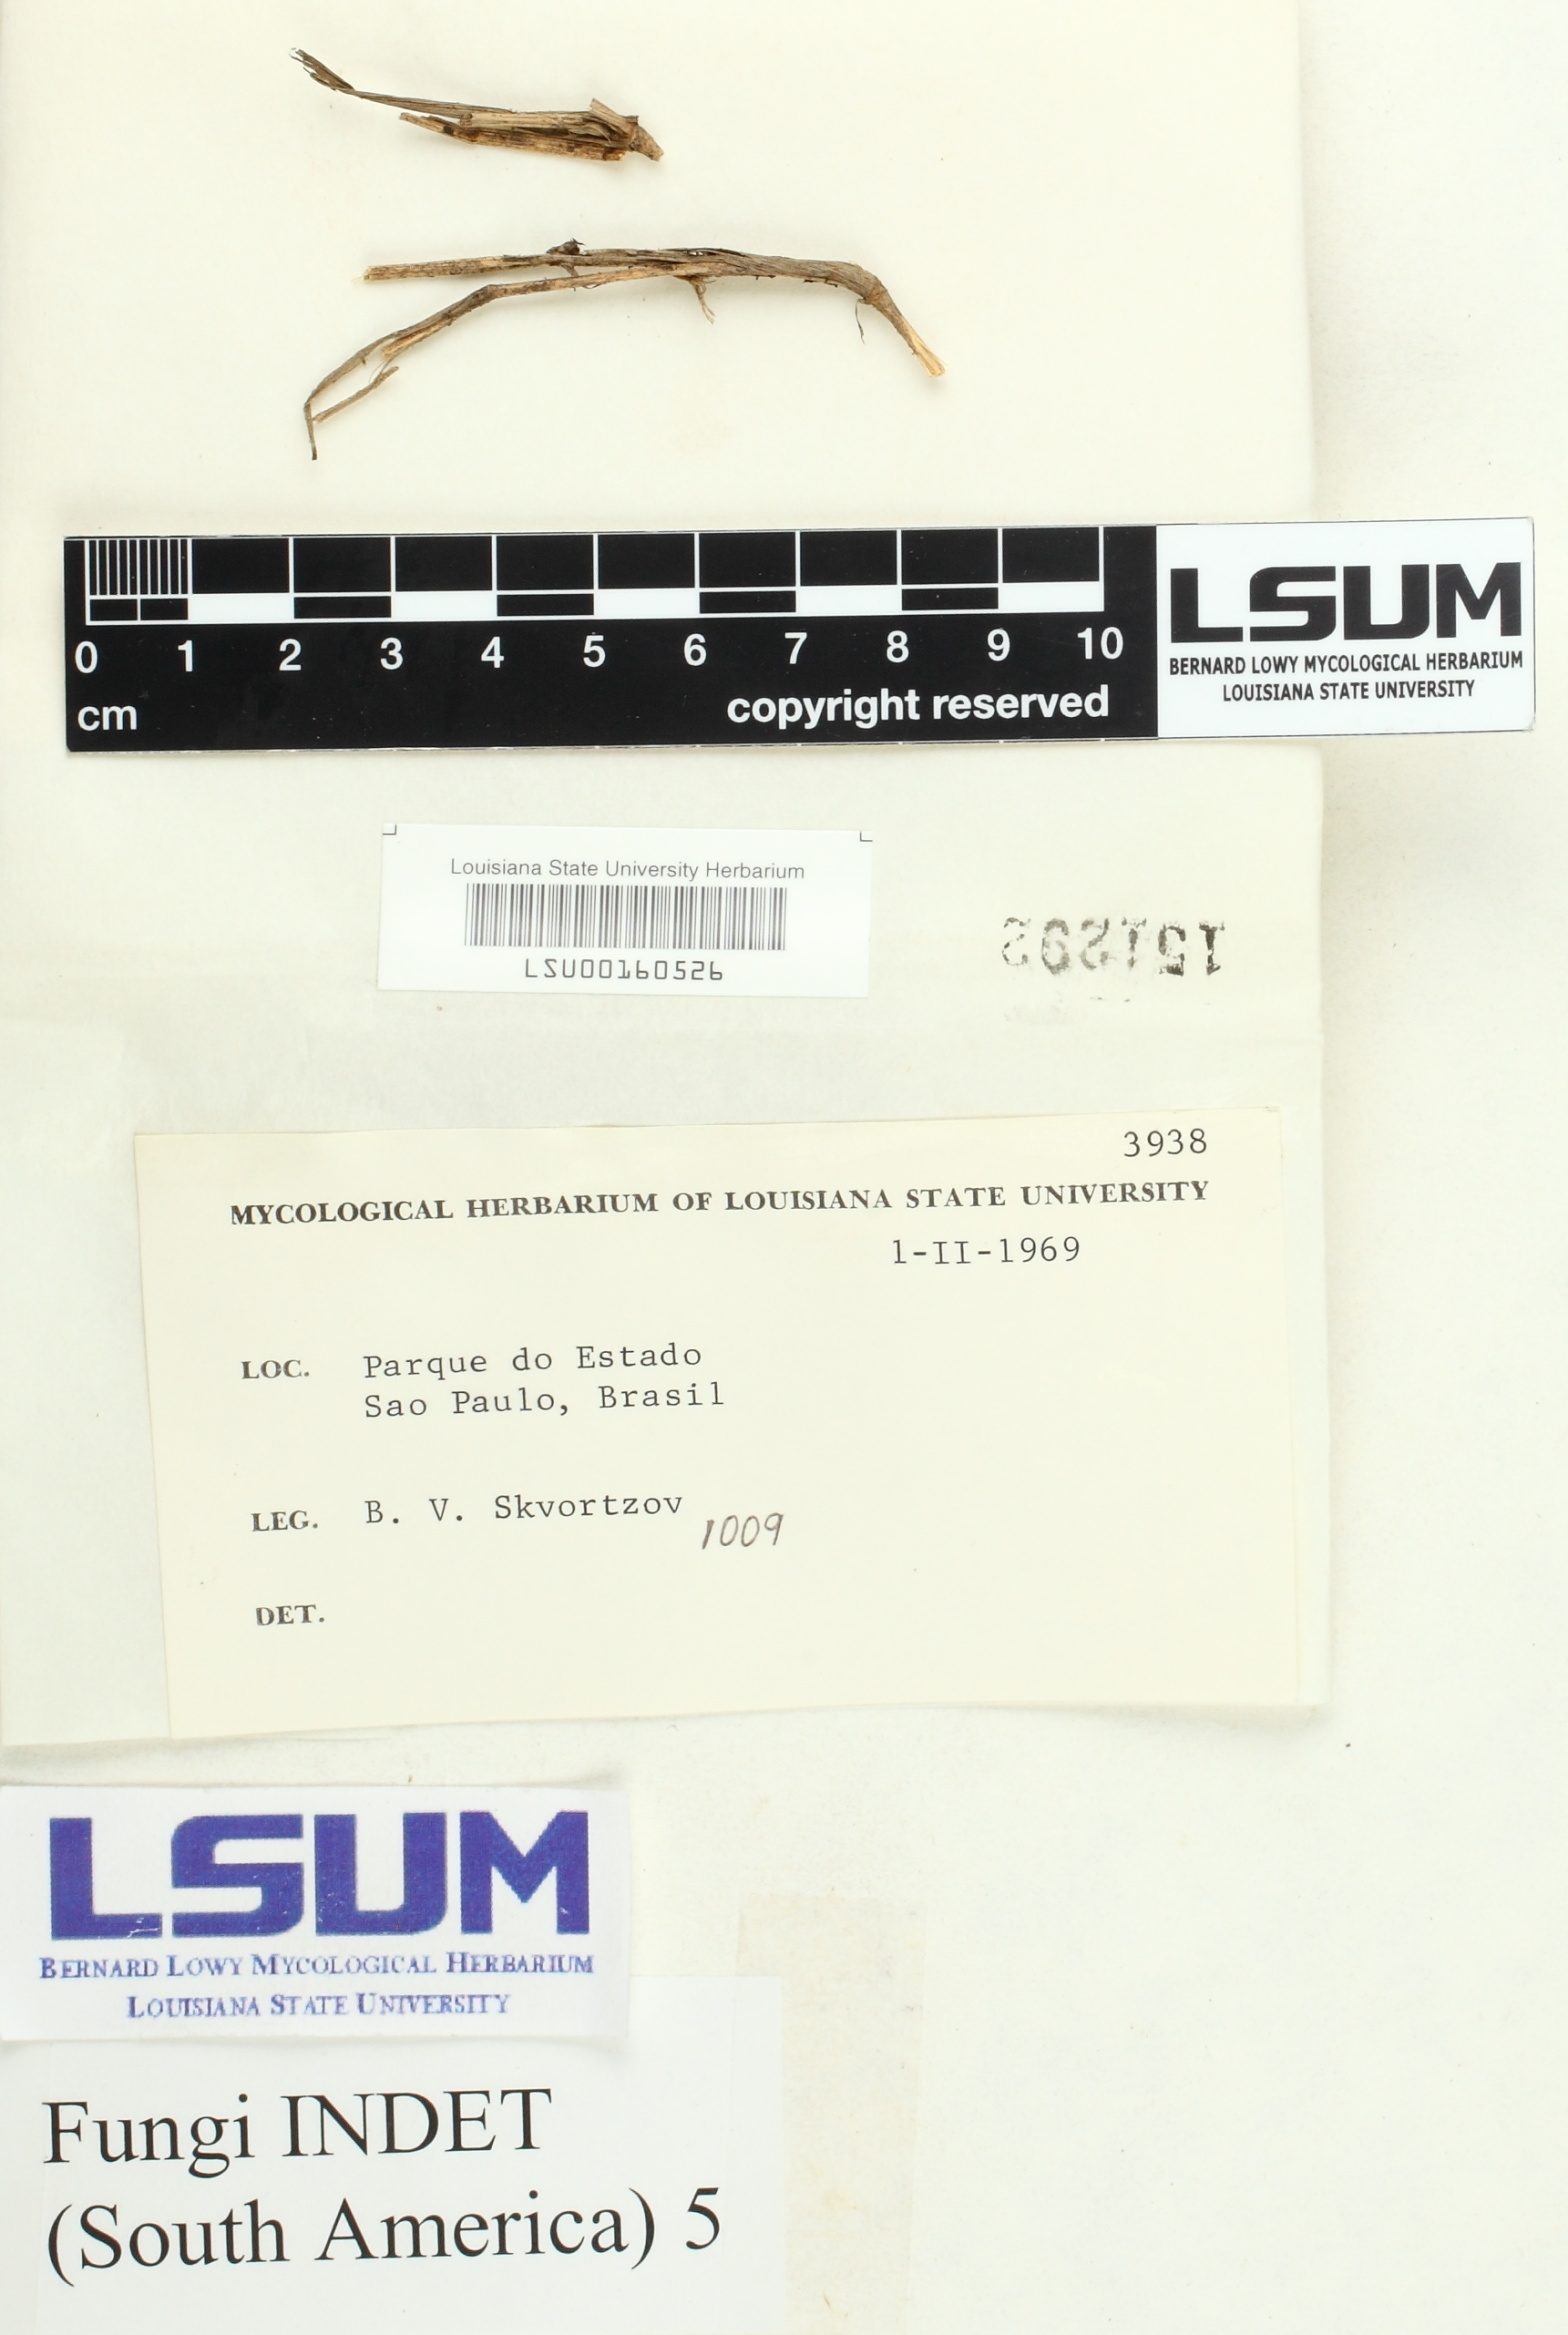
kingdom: Fungi
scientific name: Fungi
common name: Fungi
